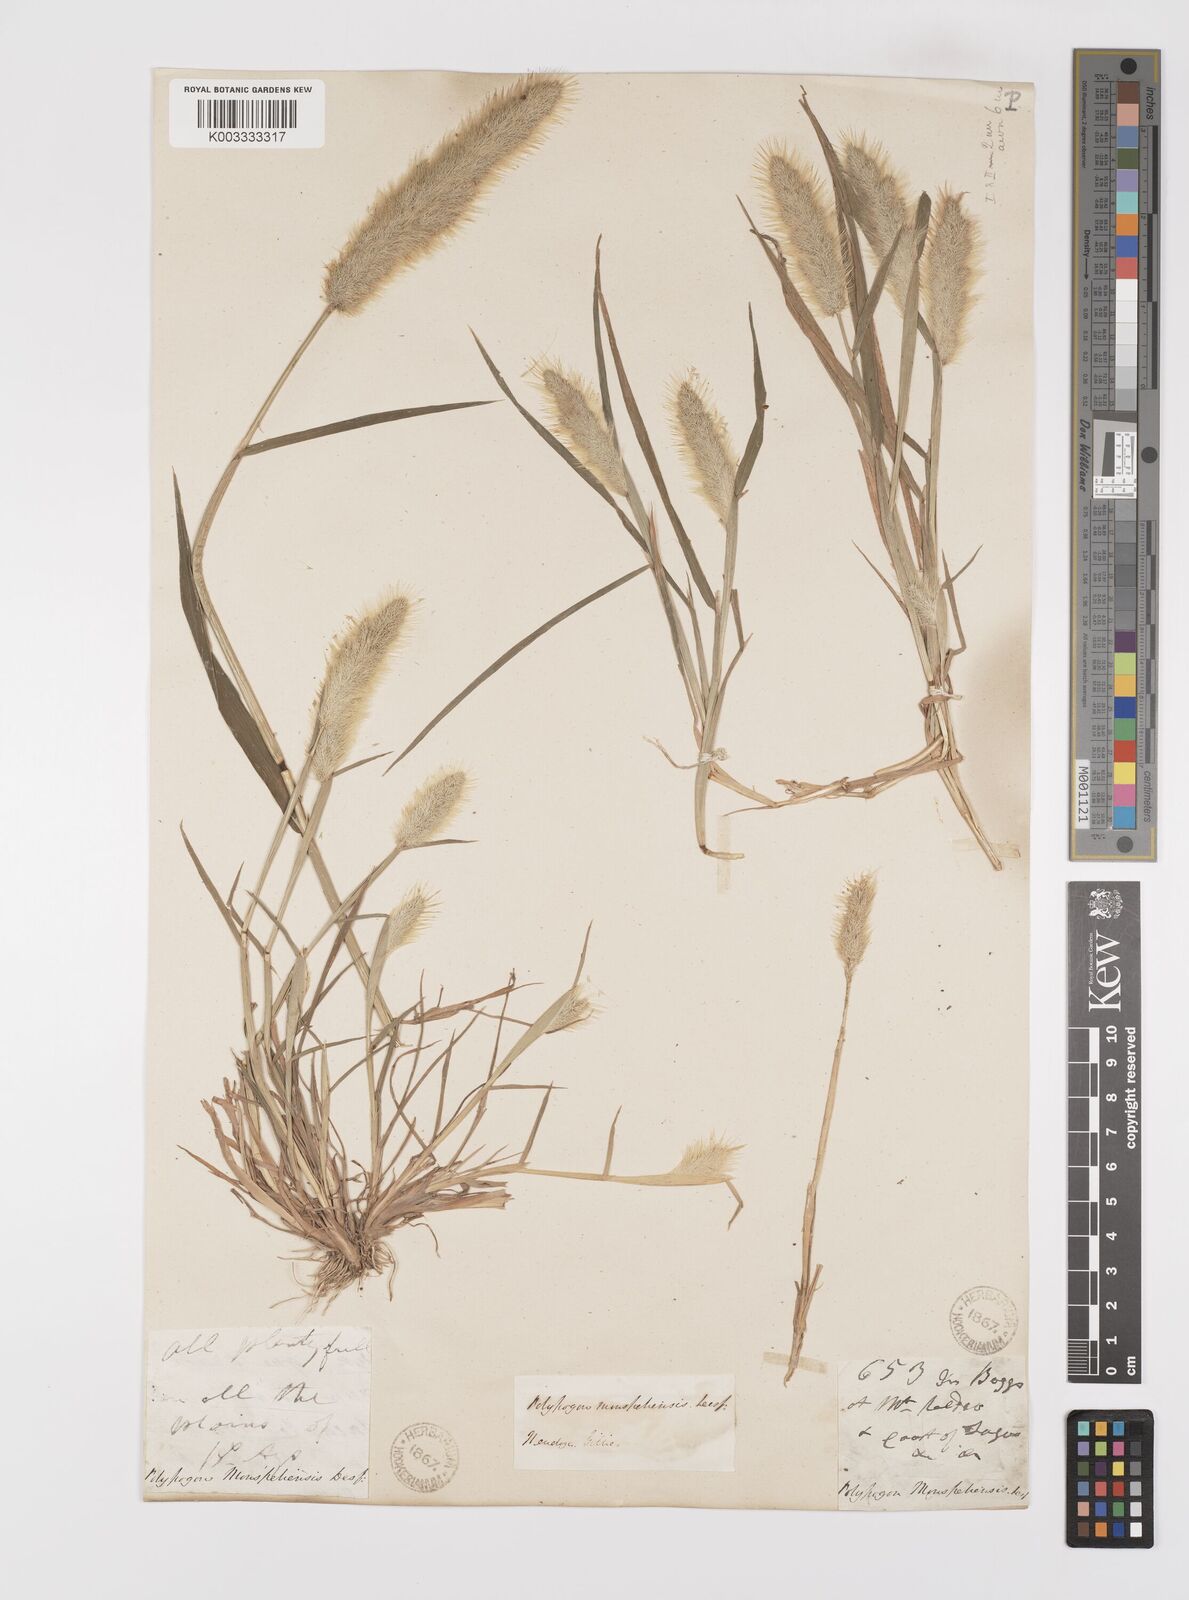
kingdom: Plantae
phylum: Tracheophyta
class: Liliopsida
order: Poales
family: Poaceae
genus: Polypogon
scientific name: Polypogon monspeliensis
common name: Annual rabbitsfoot grass
